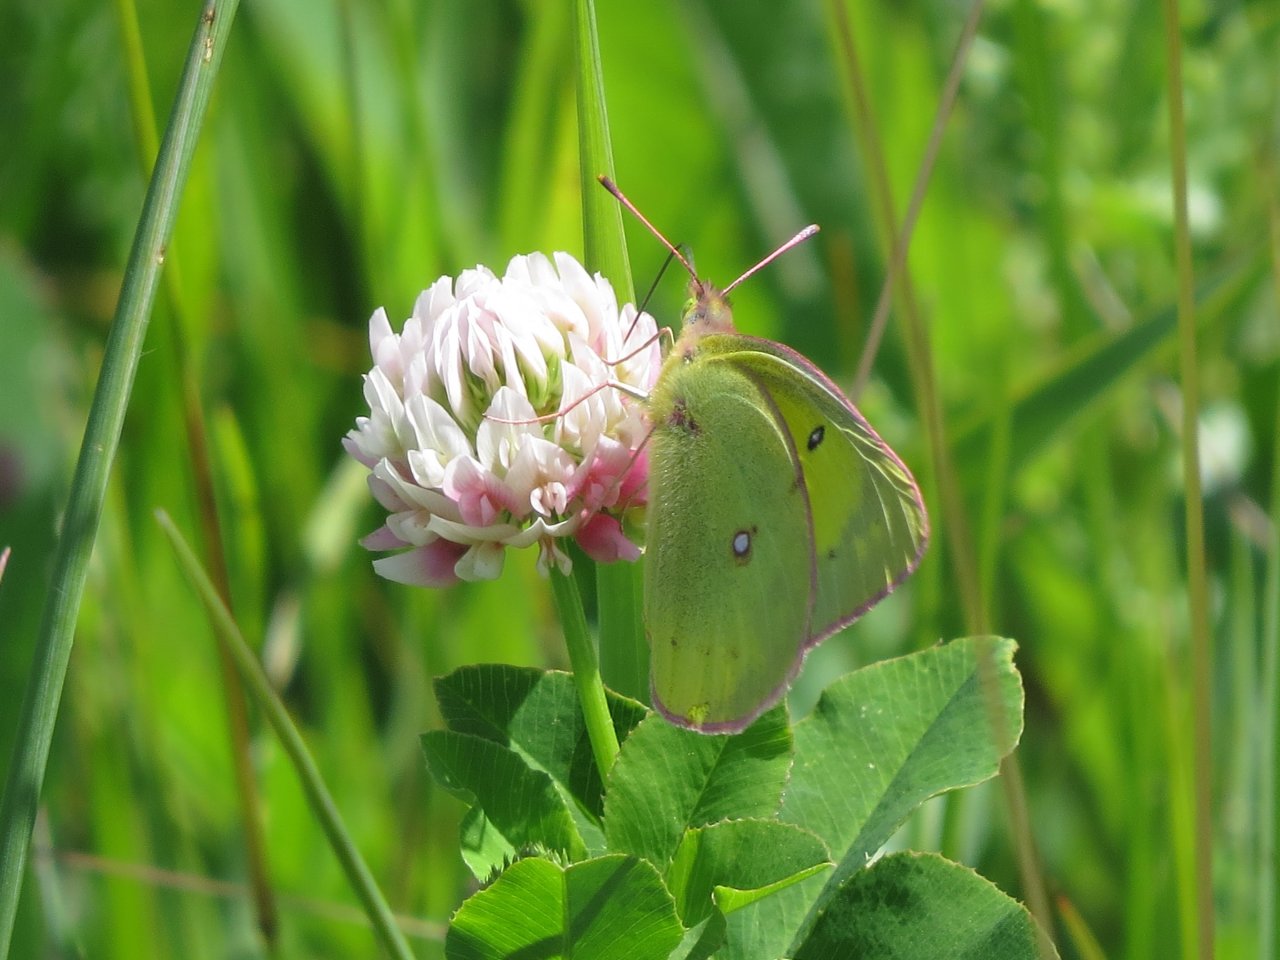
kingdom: Animalia
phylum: Arthropoda
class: Insecta
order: Lepidoptera
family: Pieridae
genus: Colias
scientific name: Colias philodice
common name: Clouded Sulphur
